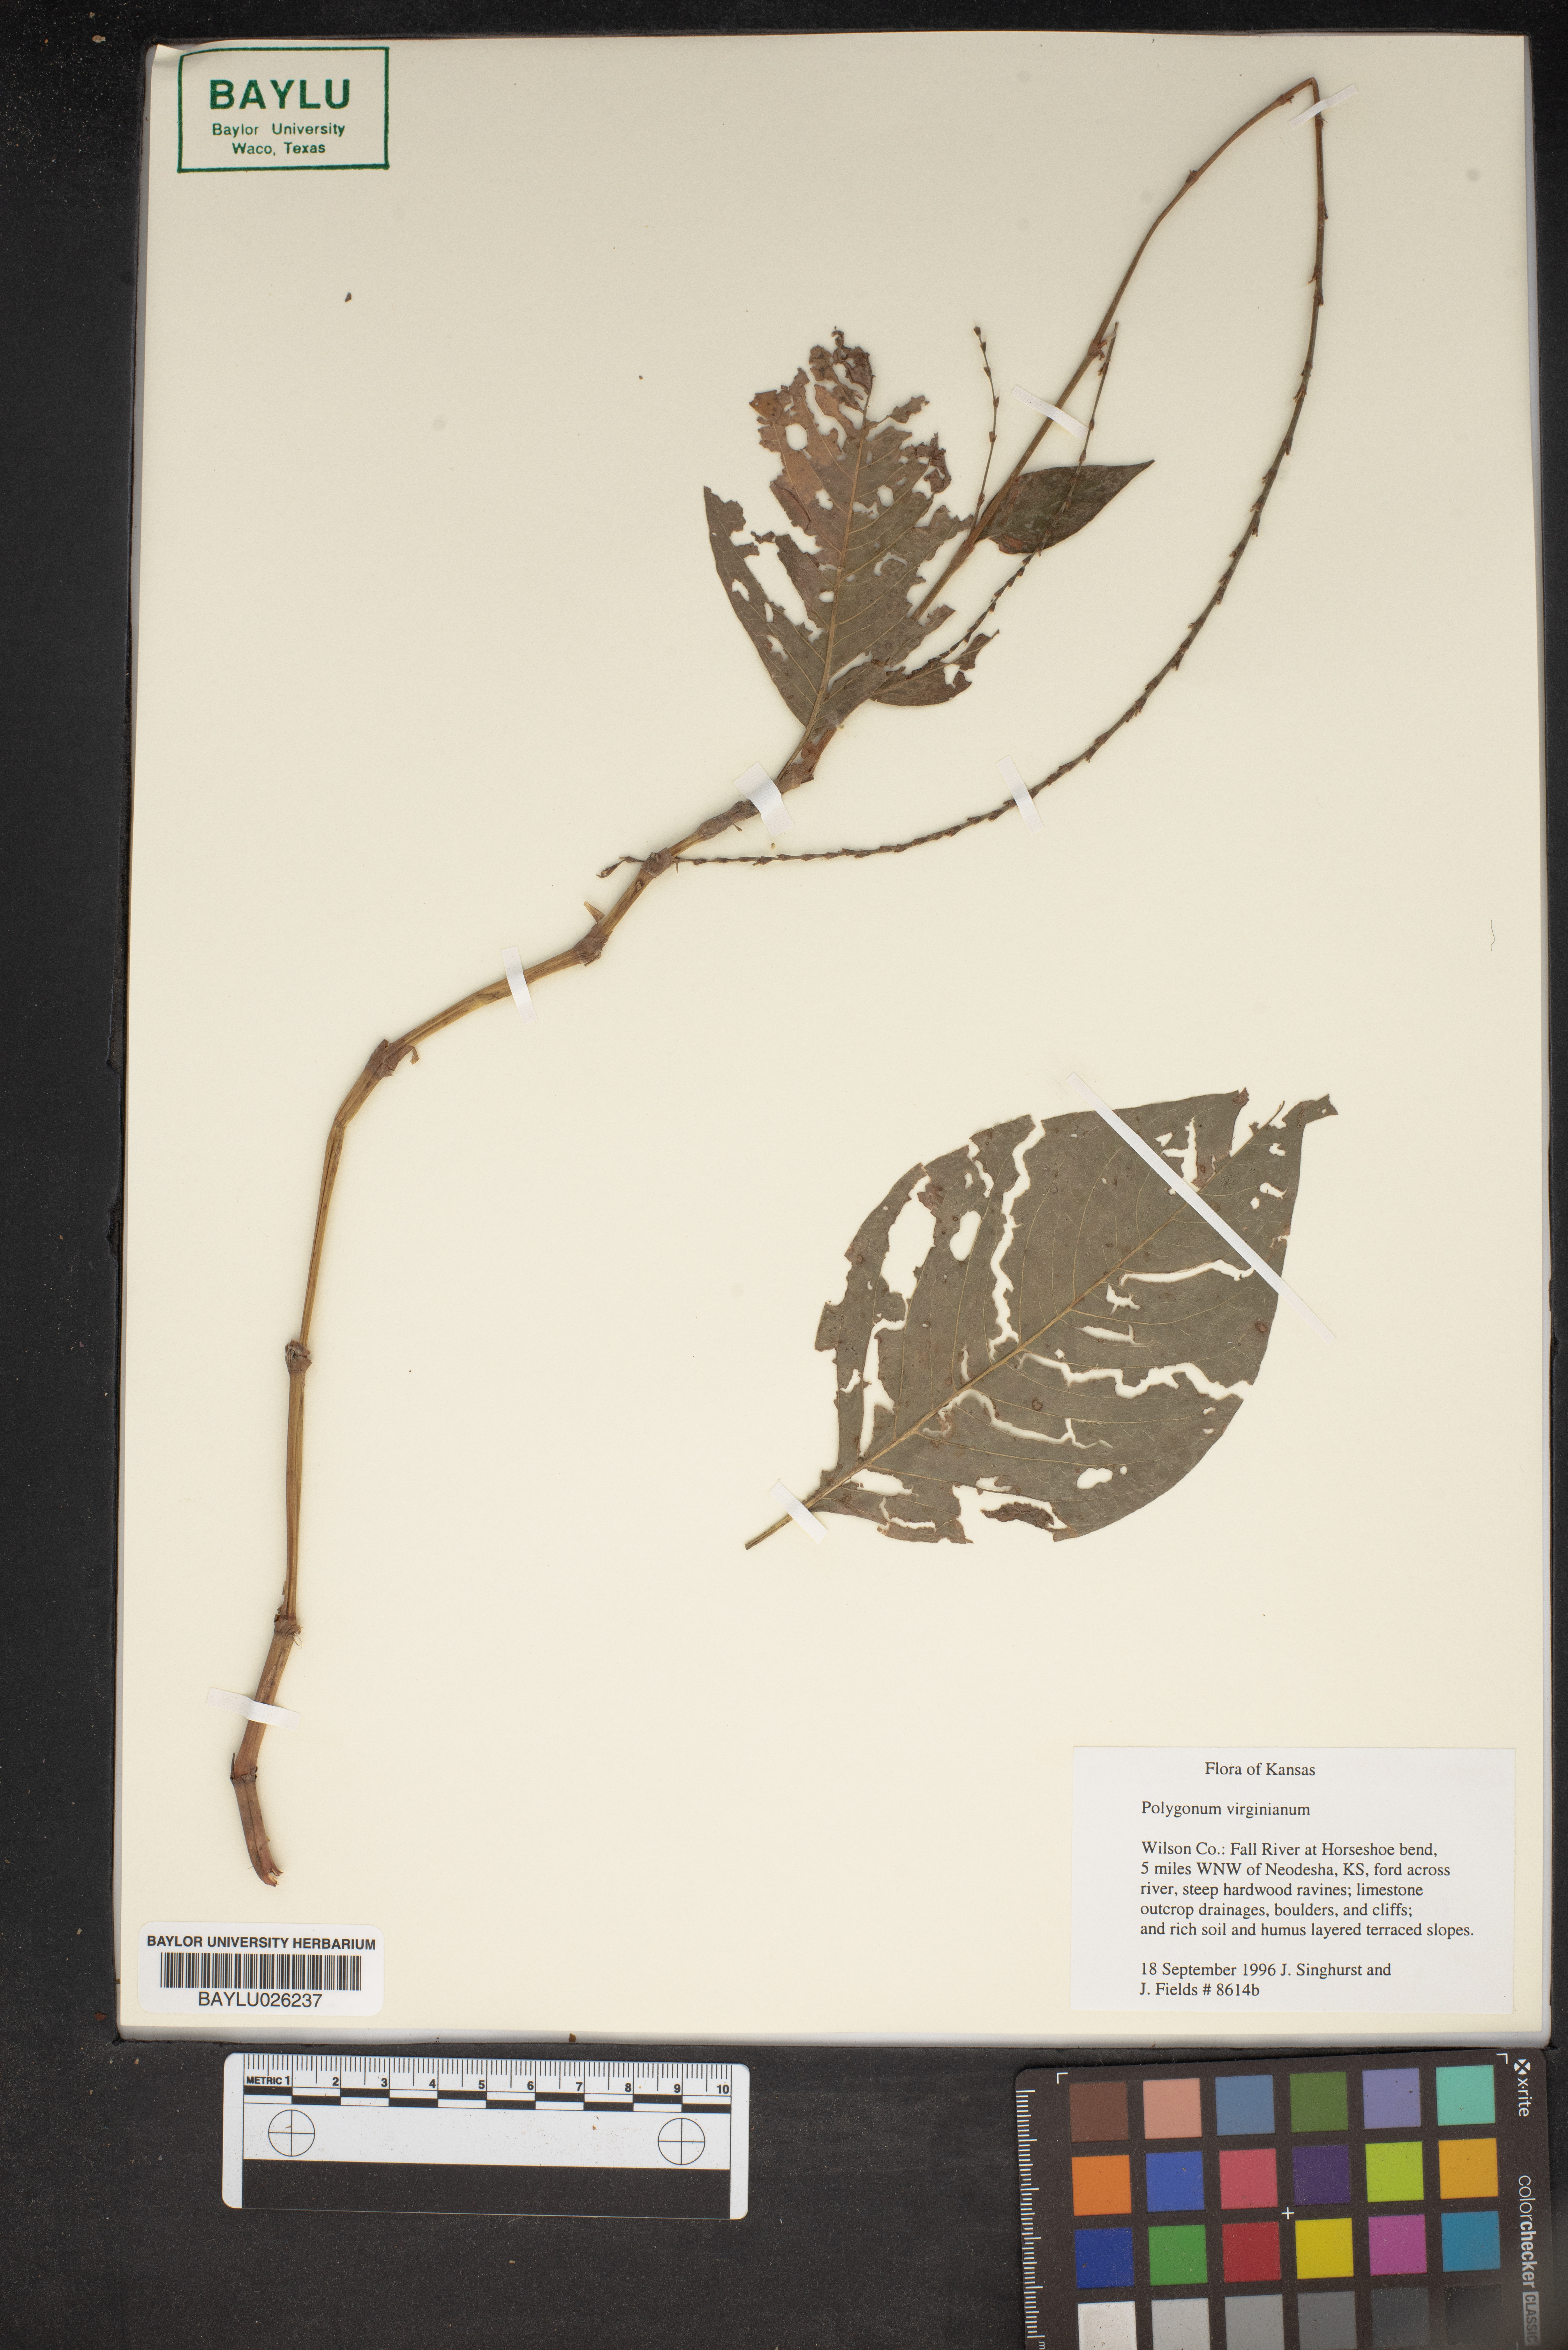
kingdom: Plantae
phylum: Tracheophyta
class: Magnoliopsida
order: Caryophyllales
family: Polygonaceae
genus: Persicaria
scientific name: Persicaria virginiana
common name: Jumpseed
